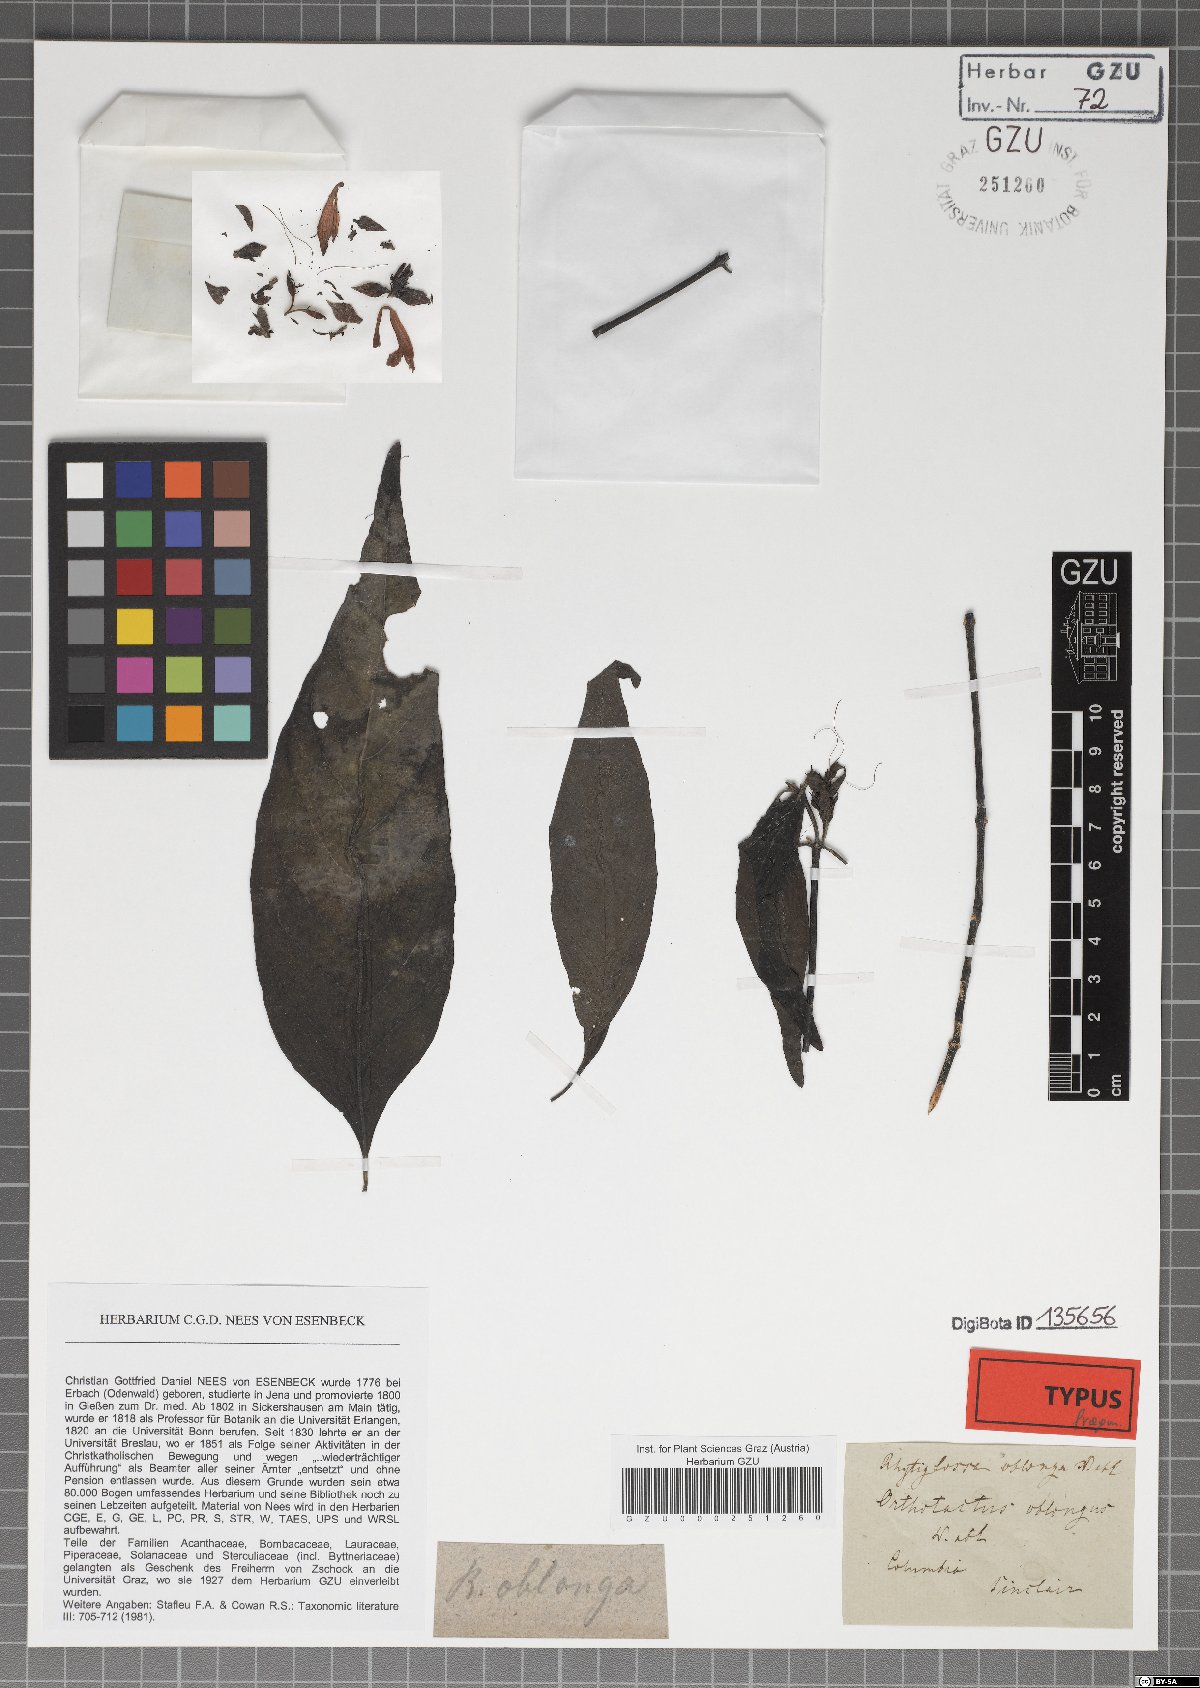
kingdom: Plantae
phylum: Tracheophyta
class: Magnoliopsida
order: Lamiales
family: Acanthaceae
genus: Dianthera
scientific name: Dianthera oblonga
